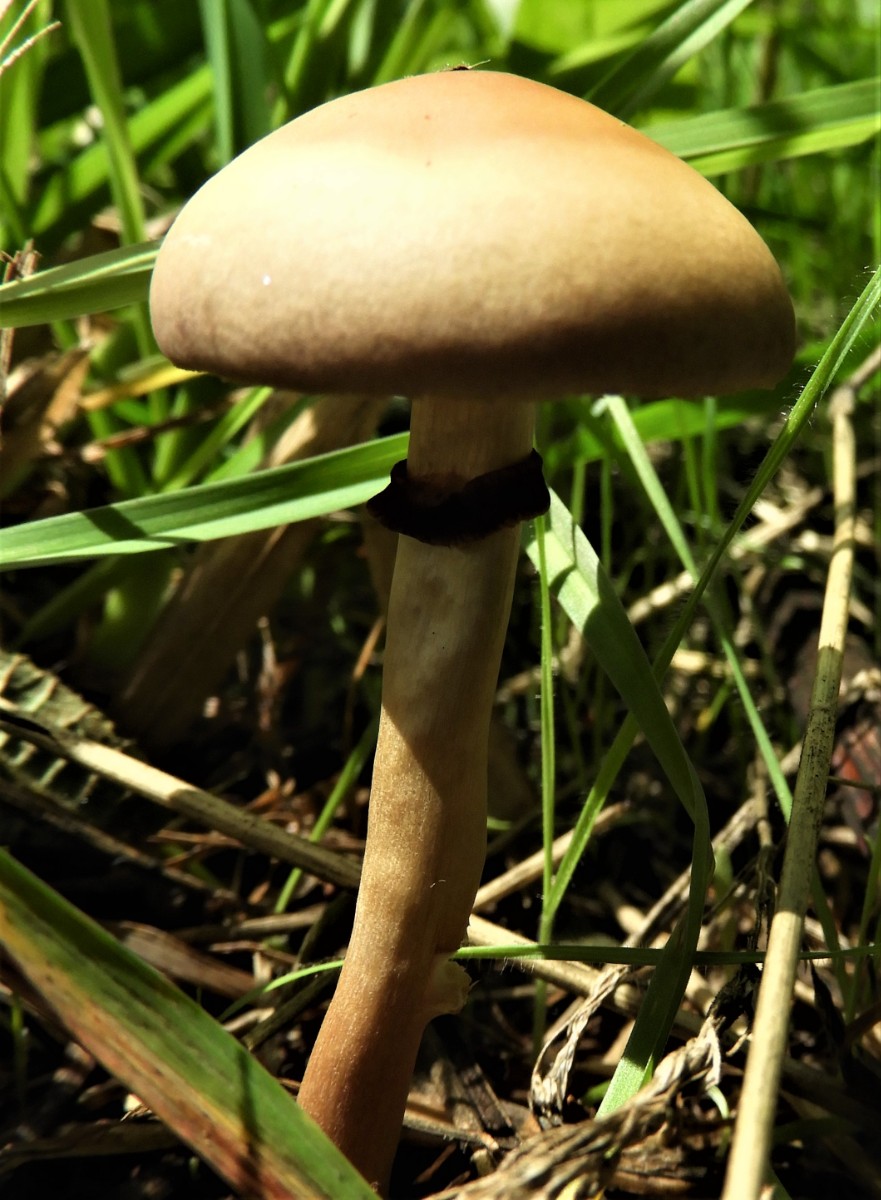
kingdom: Fungi
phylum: Basidiomycota
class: Agaricomycetes
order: Agaricales
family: Strophariaceae
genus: Agrocybe
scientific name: Agrocybe praecox
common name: tidlig agerhat
